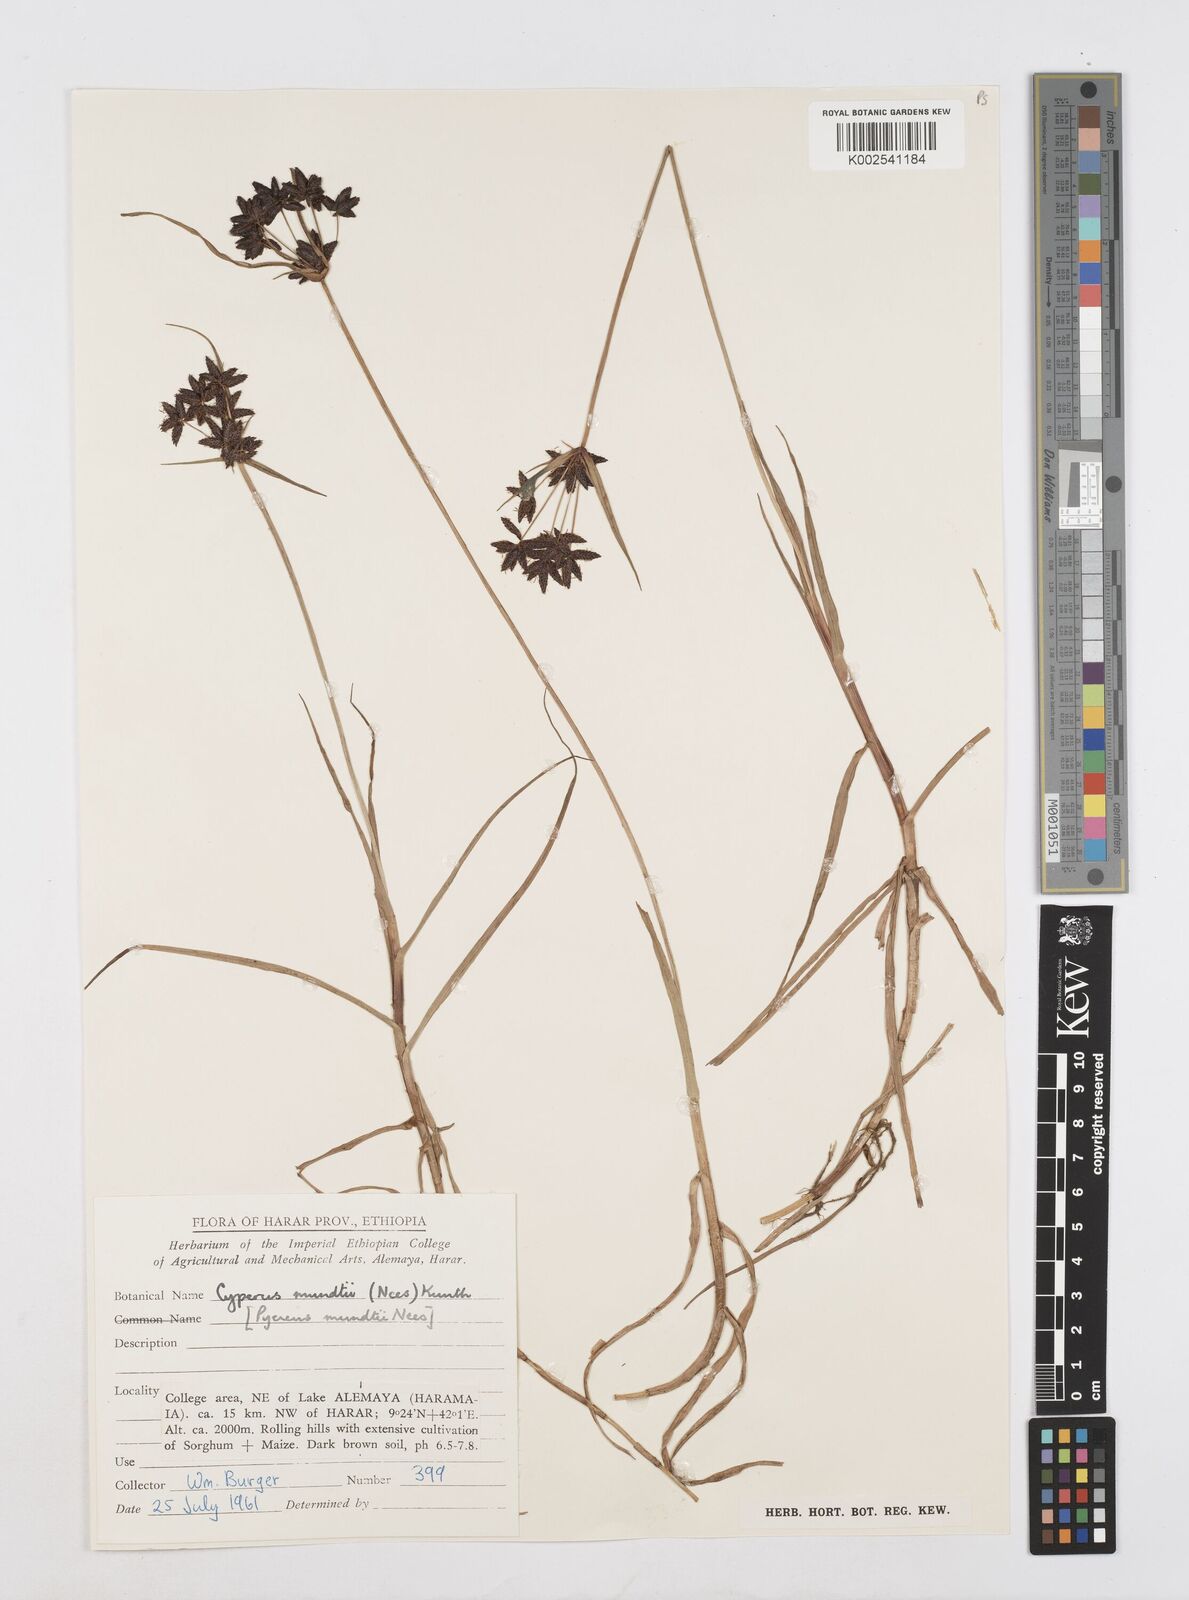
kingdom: Plantae
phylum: Tracheophyta
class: Liliopsida
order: Poales
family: Cyperaceae
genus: Cyperus
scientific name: Cyperus mundii
